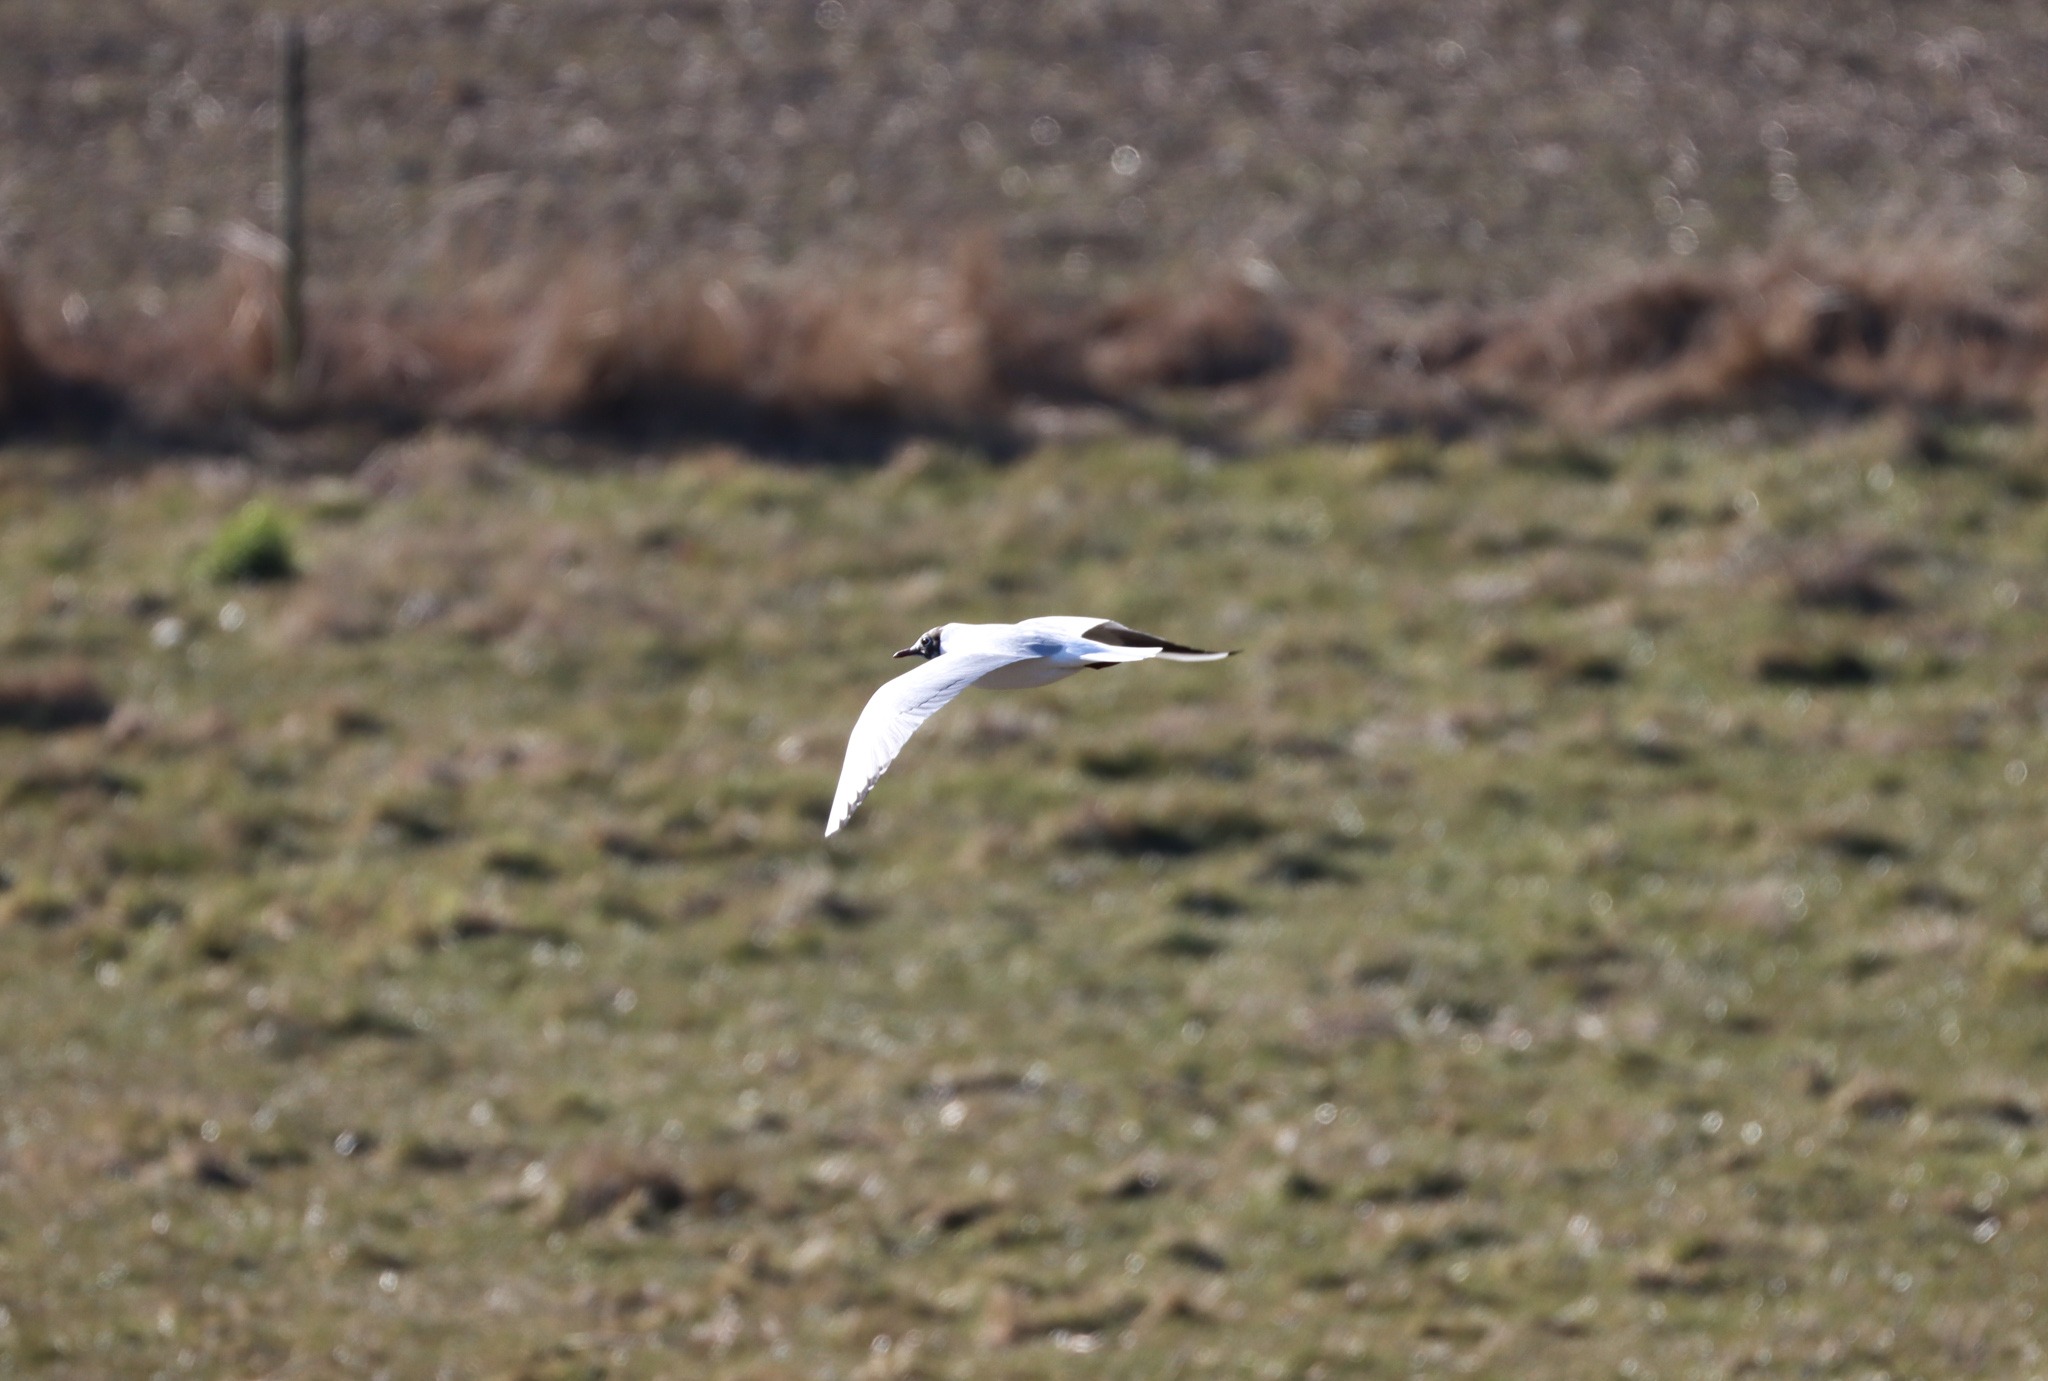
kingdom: Animalia
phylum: Chordata
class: Aves
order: Charadriiformes
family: Laridae
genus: Chroicocephalus
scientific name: Chroicocephalus ridibundus
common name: Hættemåge
